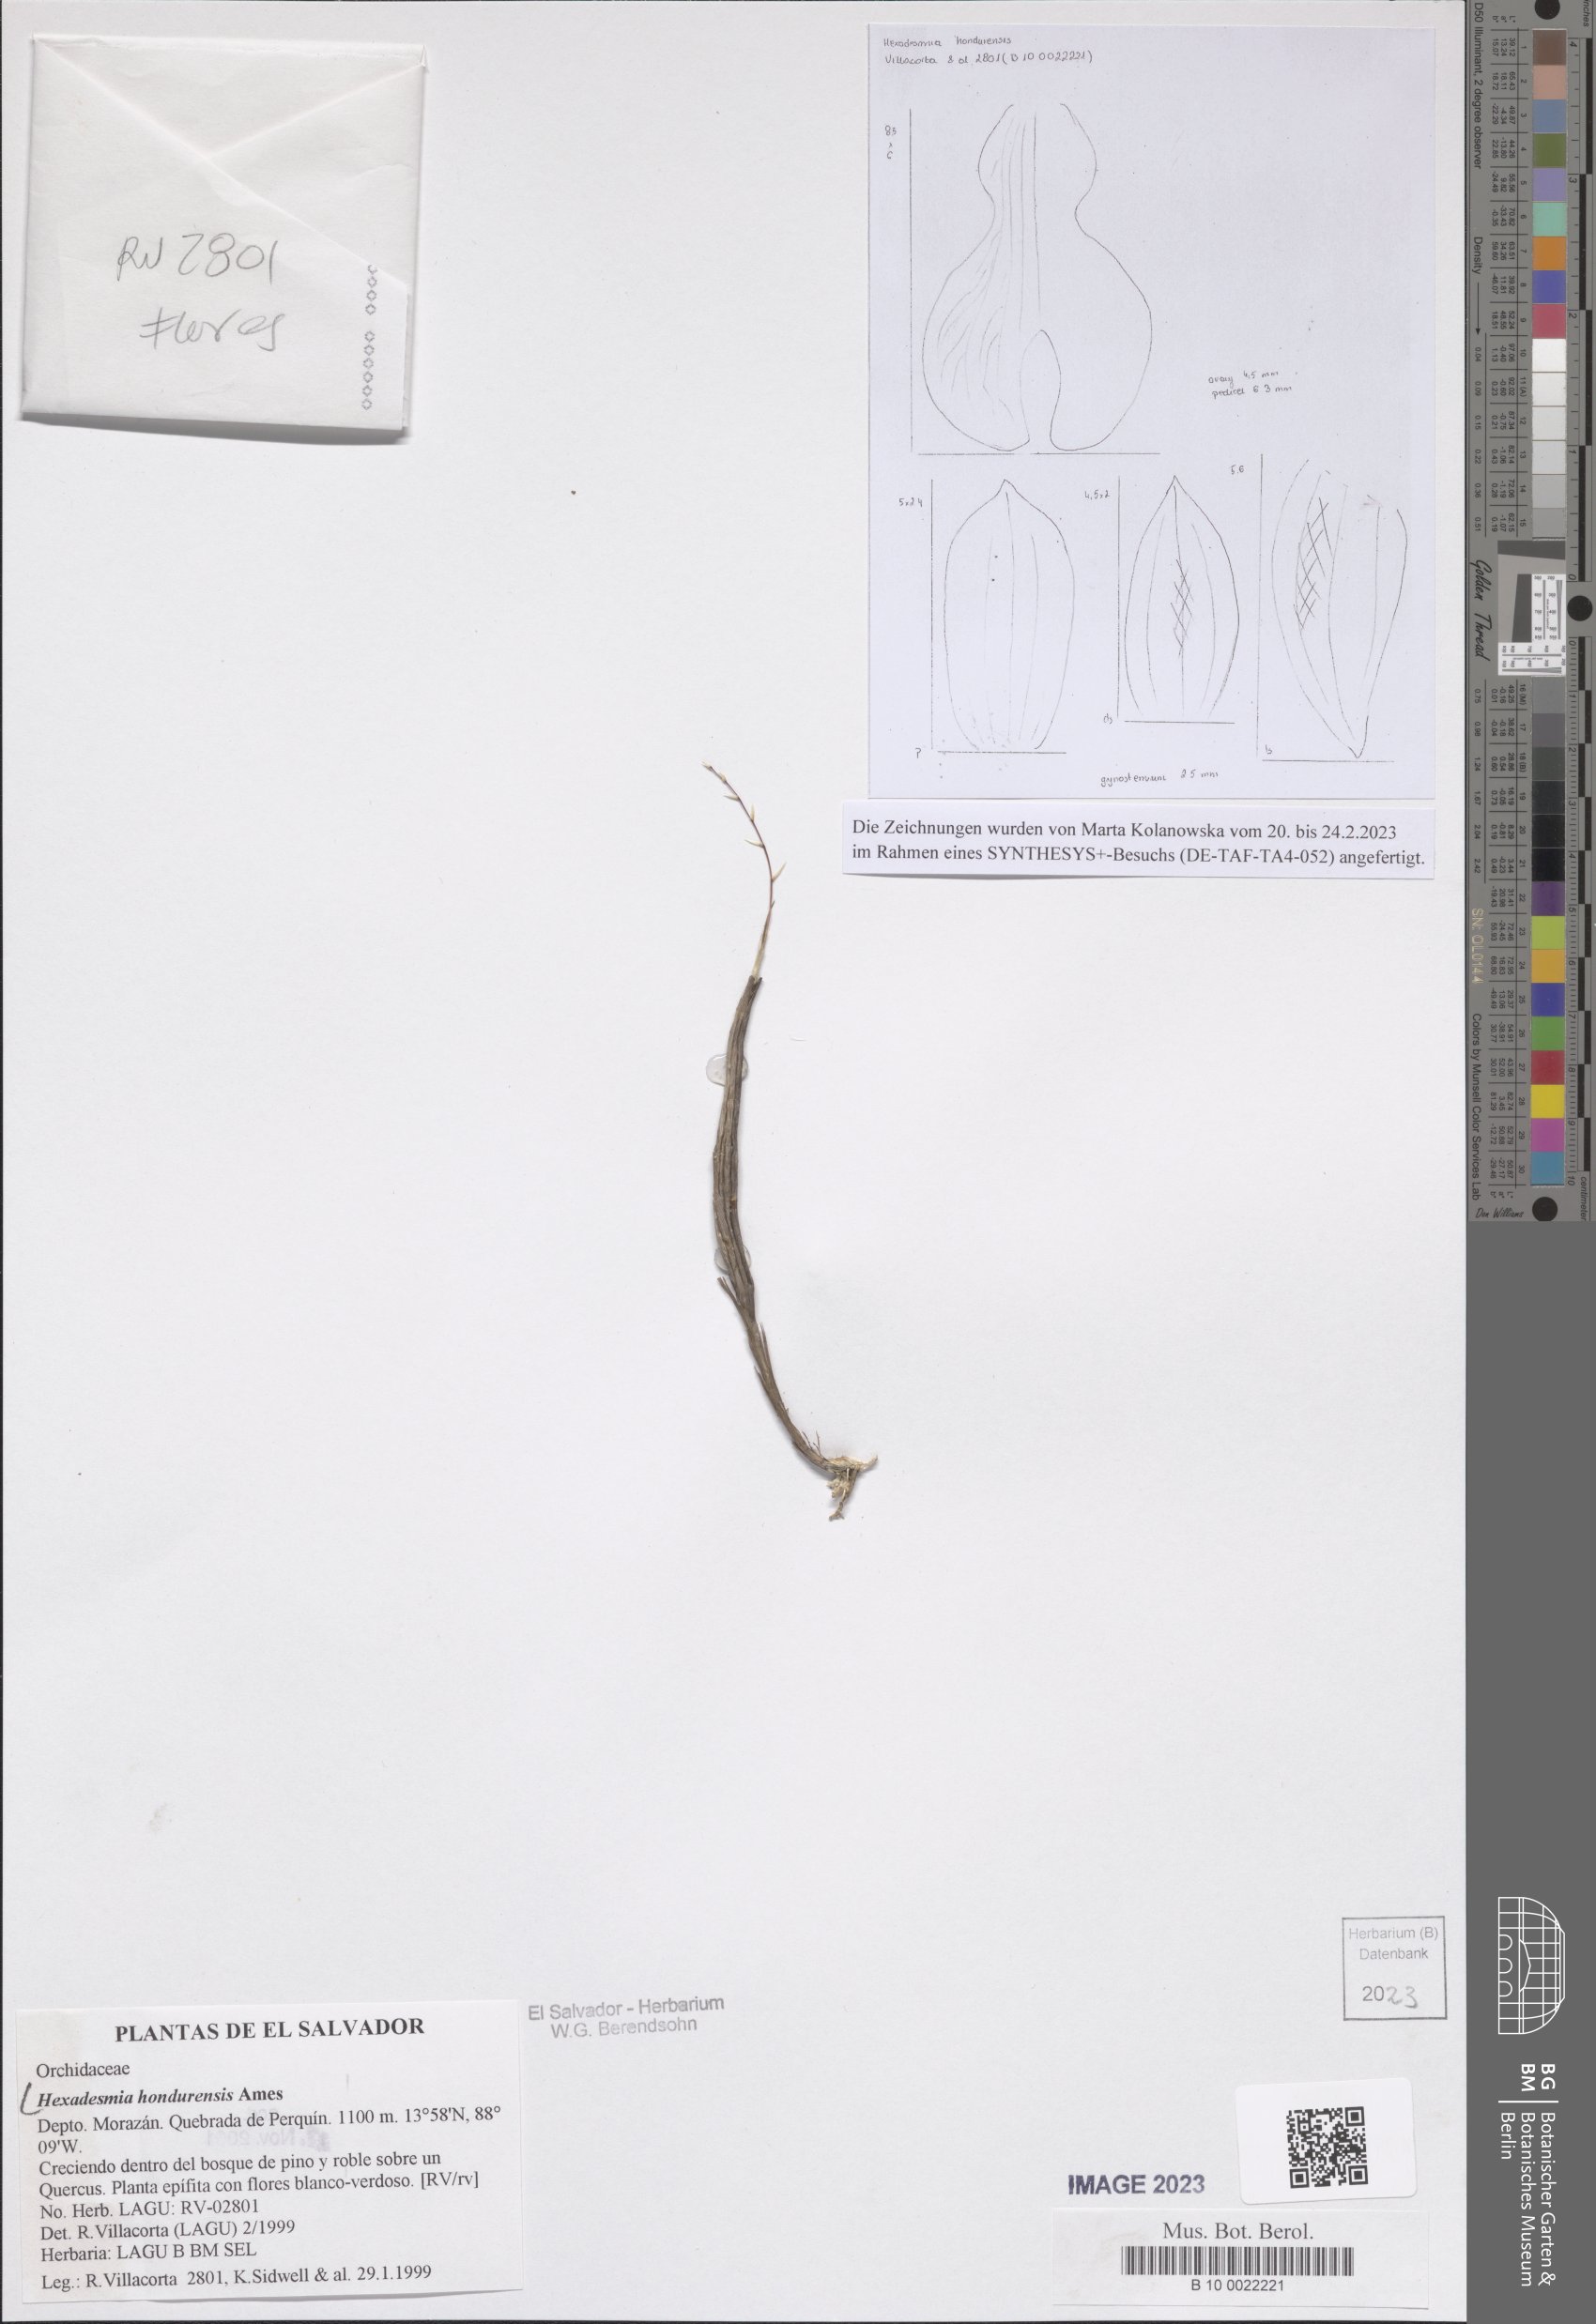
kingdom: Plantae
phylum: Tracheophyta
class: Liliopsida
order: Asparagales
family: Orchidaceae
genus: Scaphyglottis
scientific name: Scaphyglottis hondurensis
